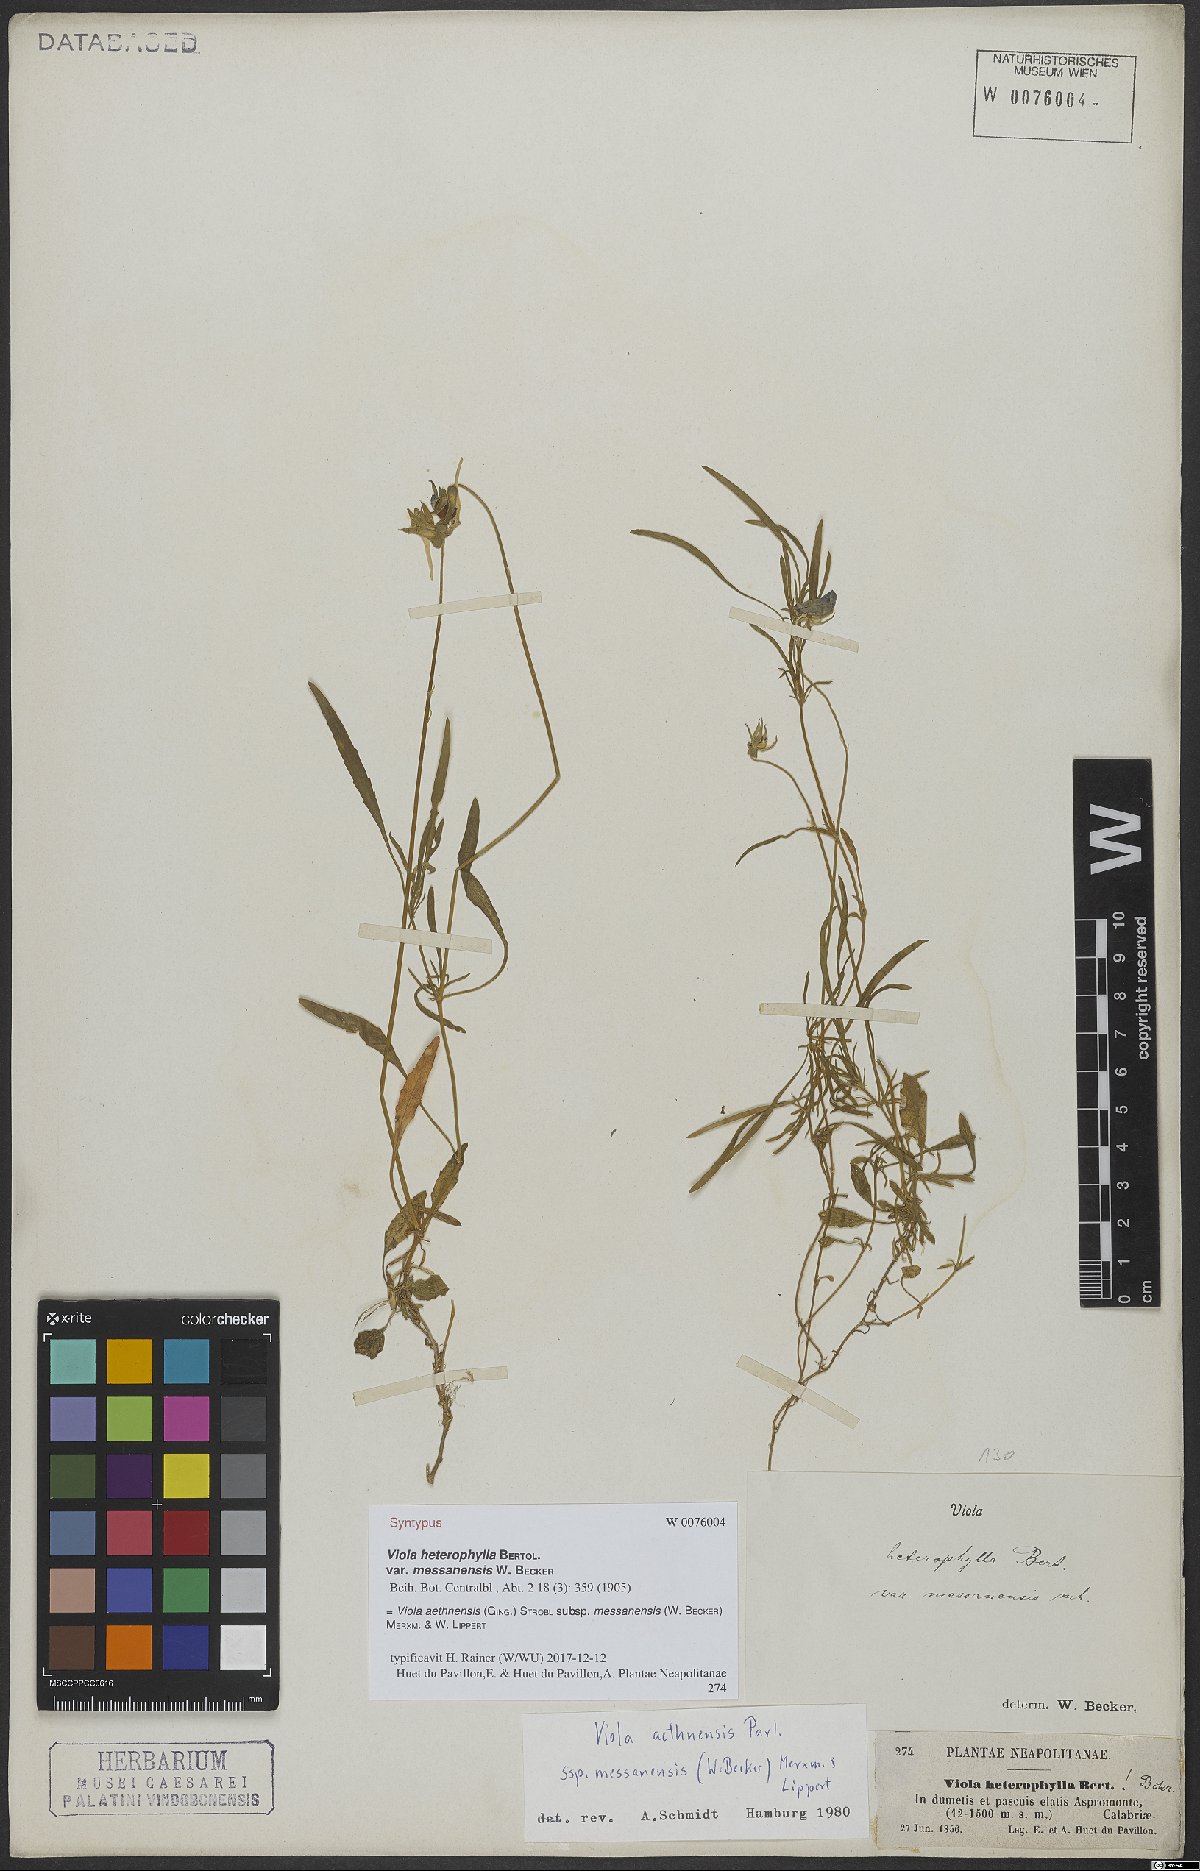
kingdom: Plantae
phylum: Tracheophyta
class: Magnoliopsida
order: Malpighiales
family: Violaceae
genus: Viola
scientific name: Viola aethnensis
